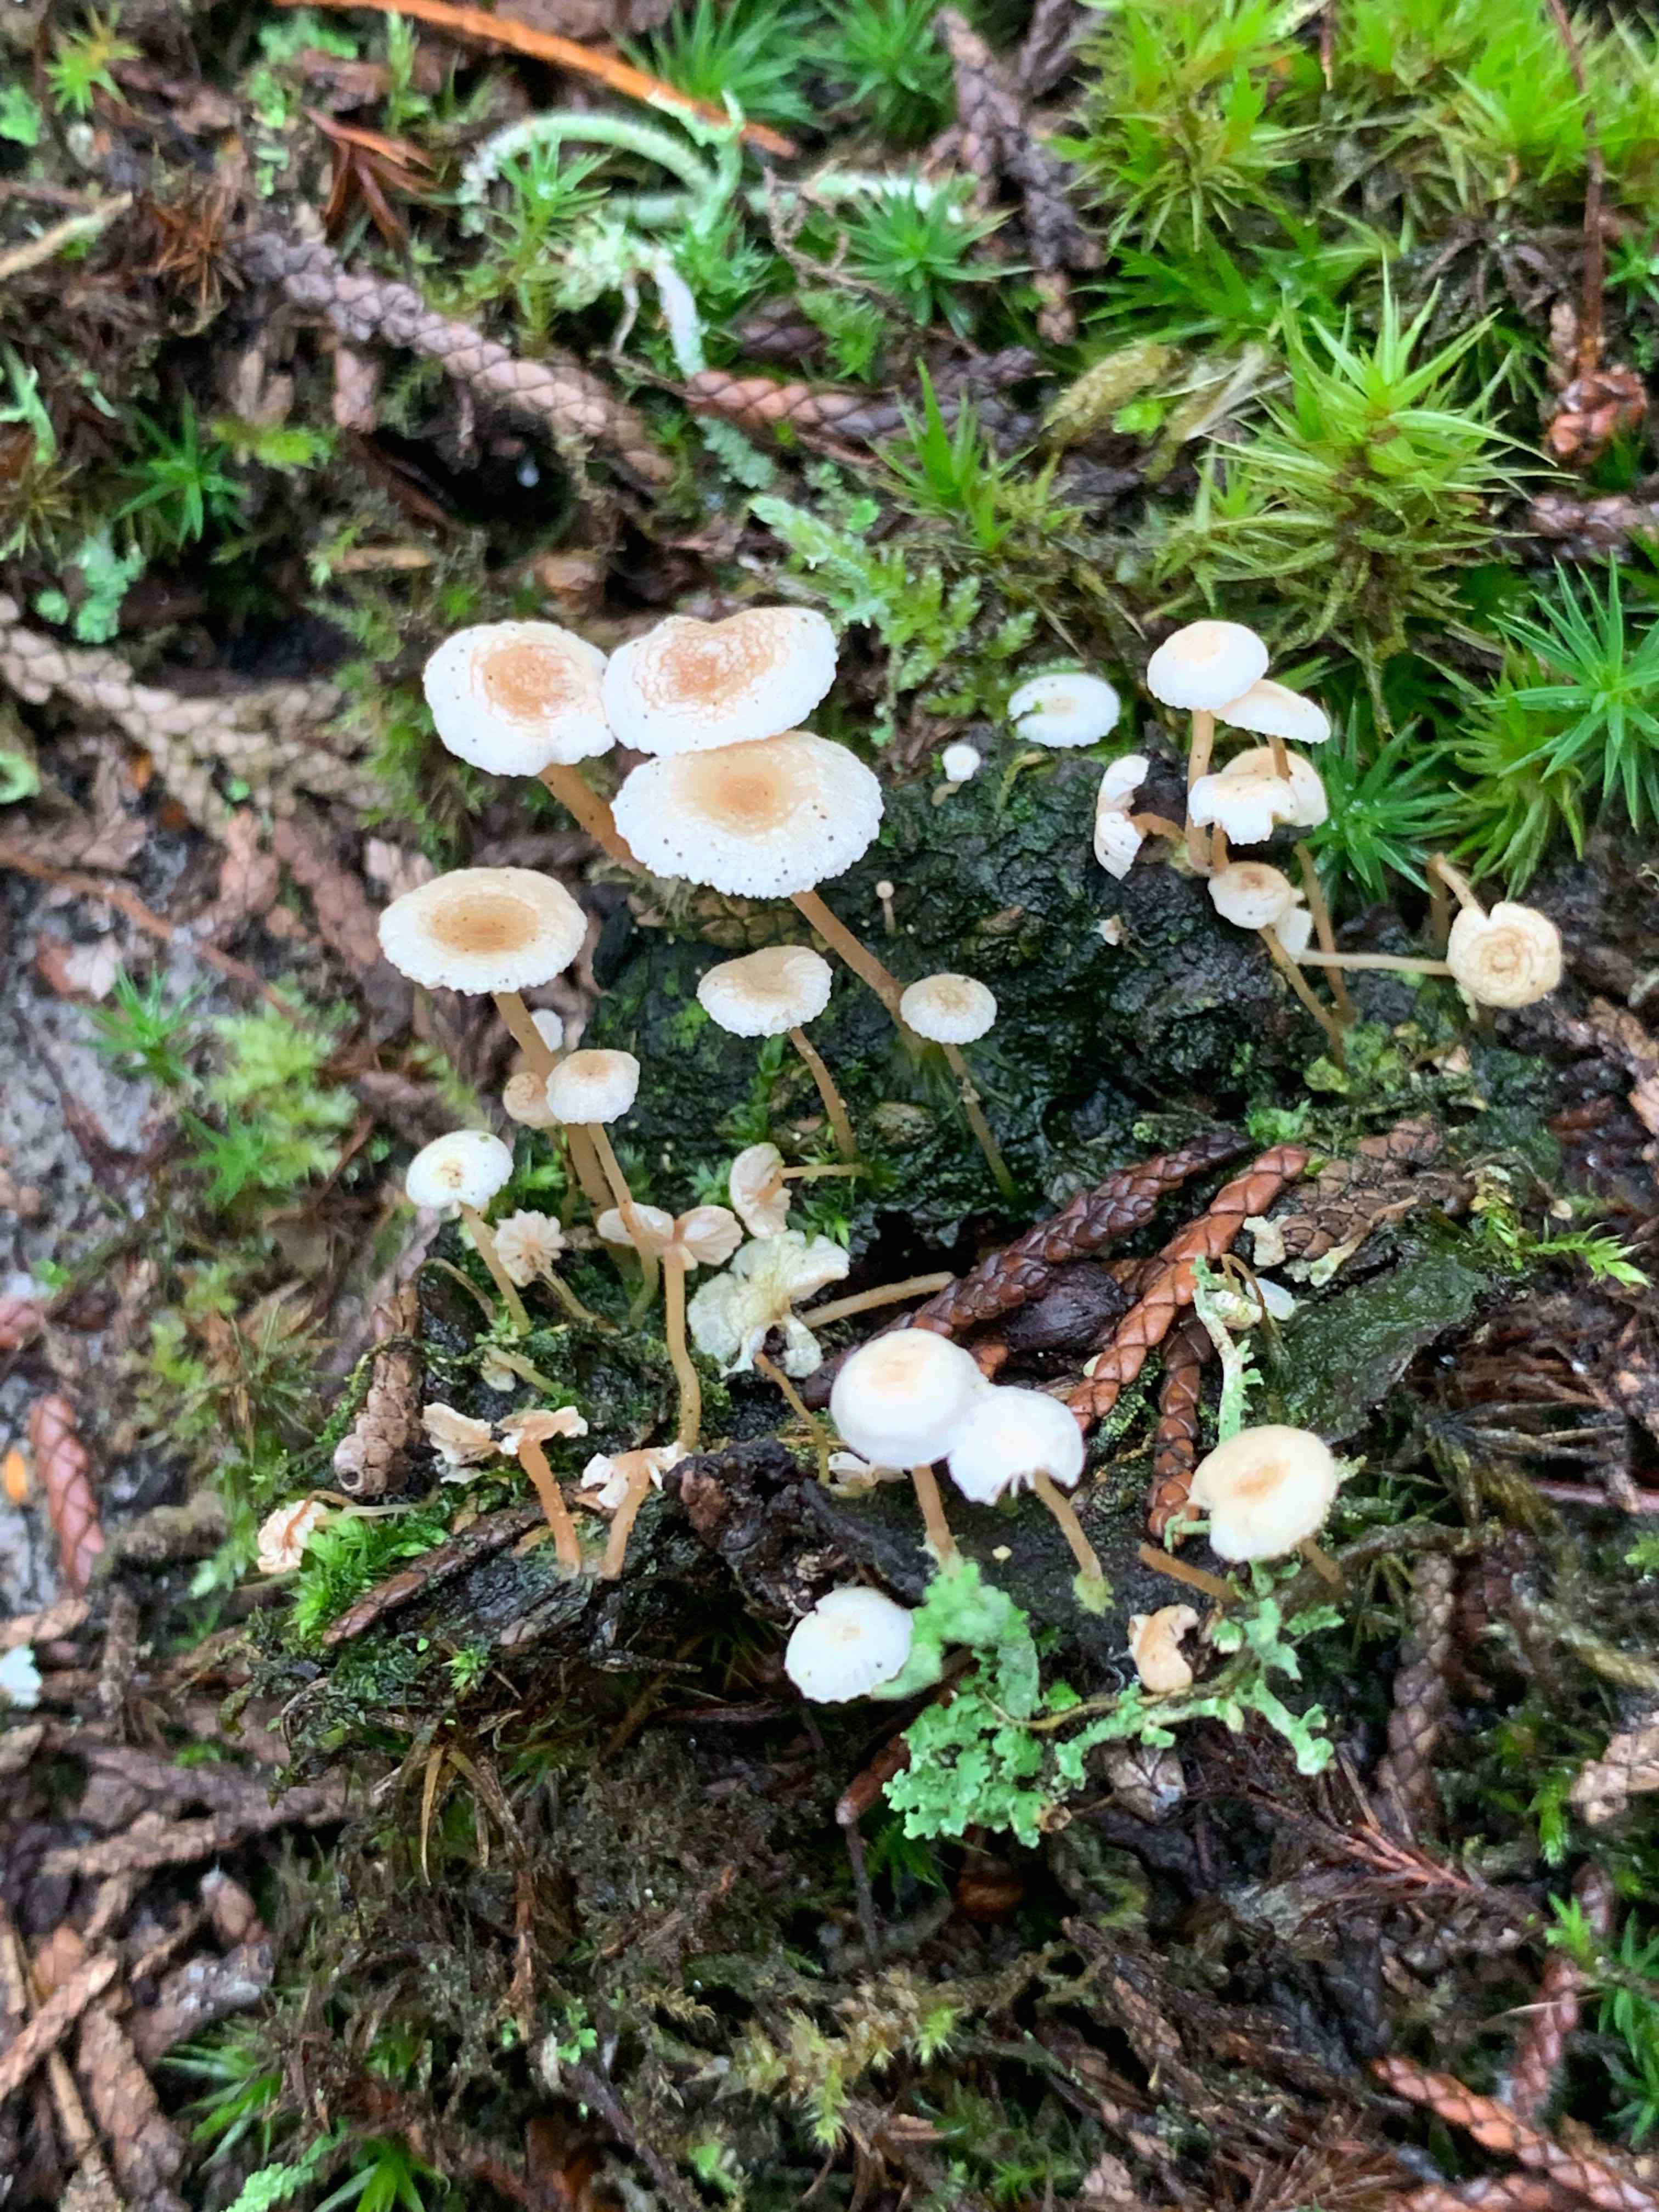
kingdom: Fungi
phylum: Basidiomycota
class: Agaricomycetes
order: Agaricales
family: Omphalotaceae
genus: Collybiopsis
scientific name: Collybiopsis ramealis
